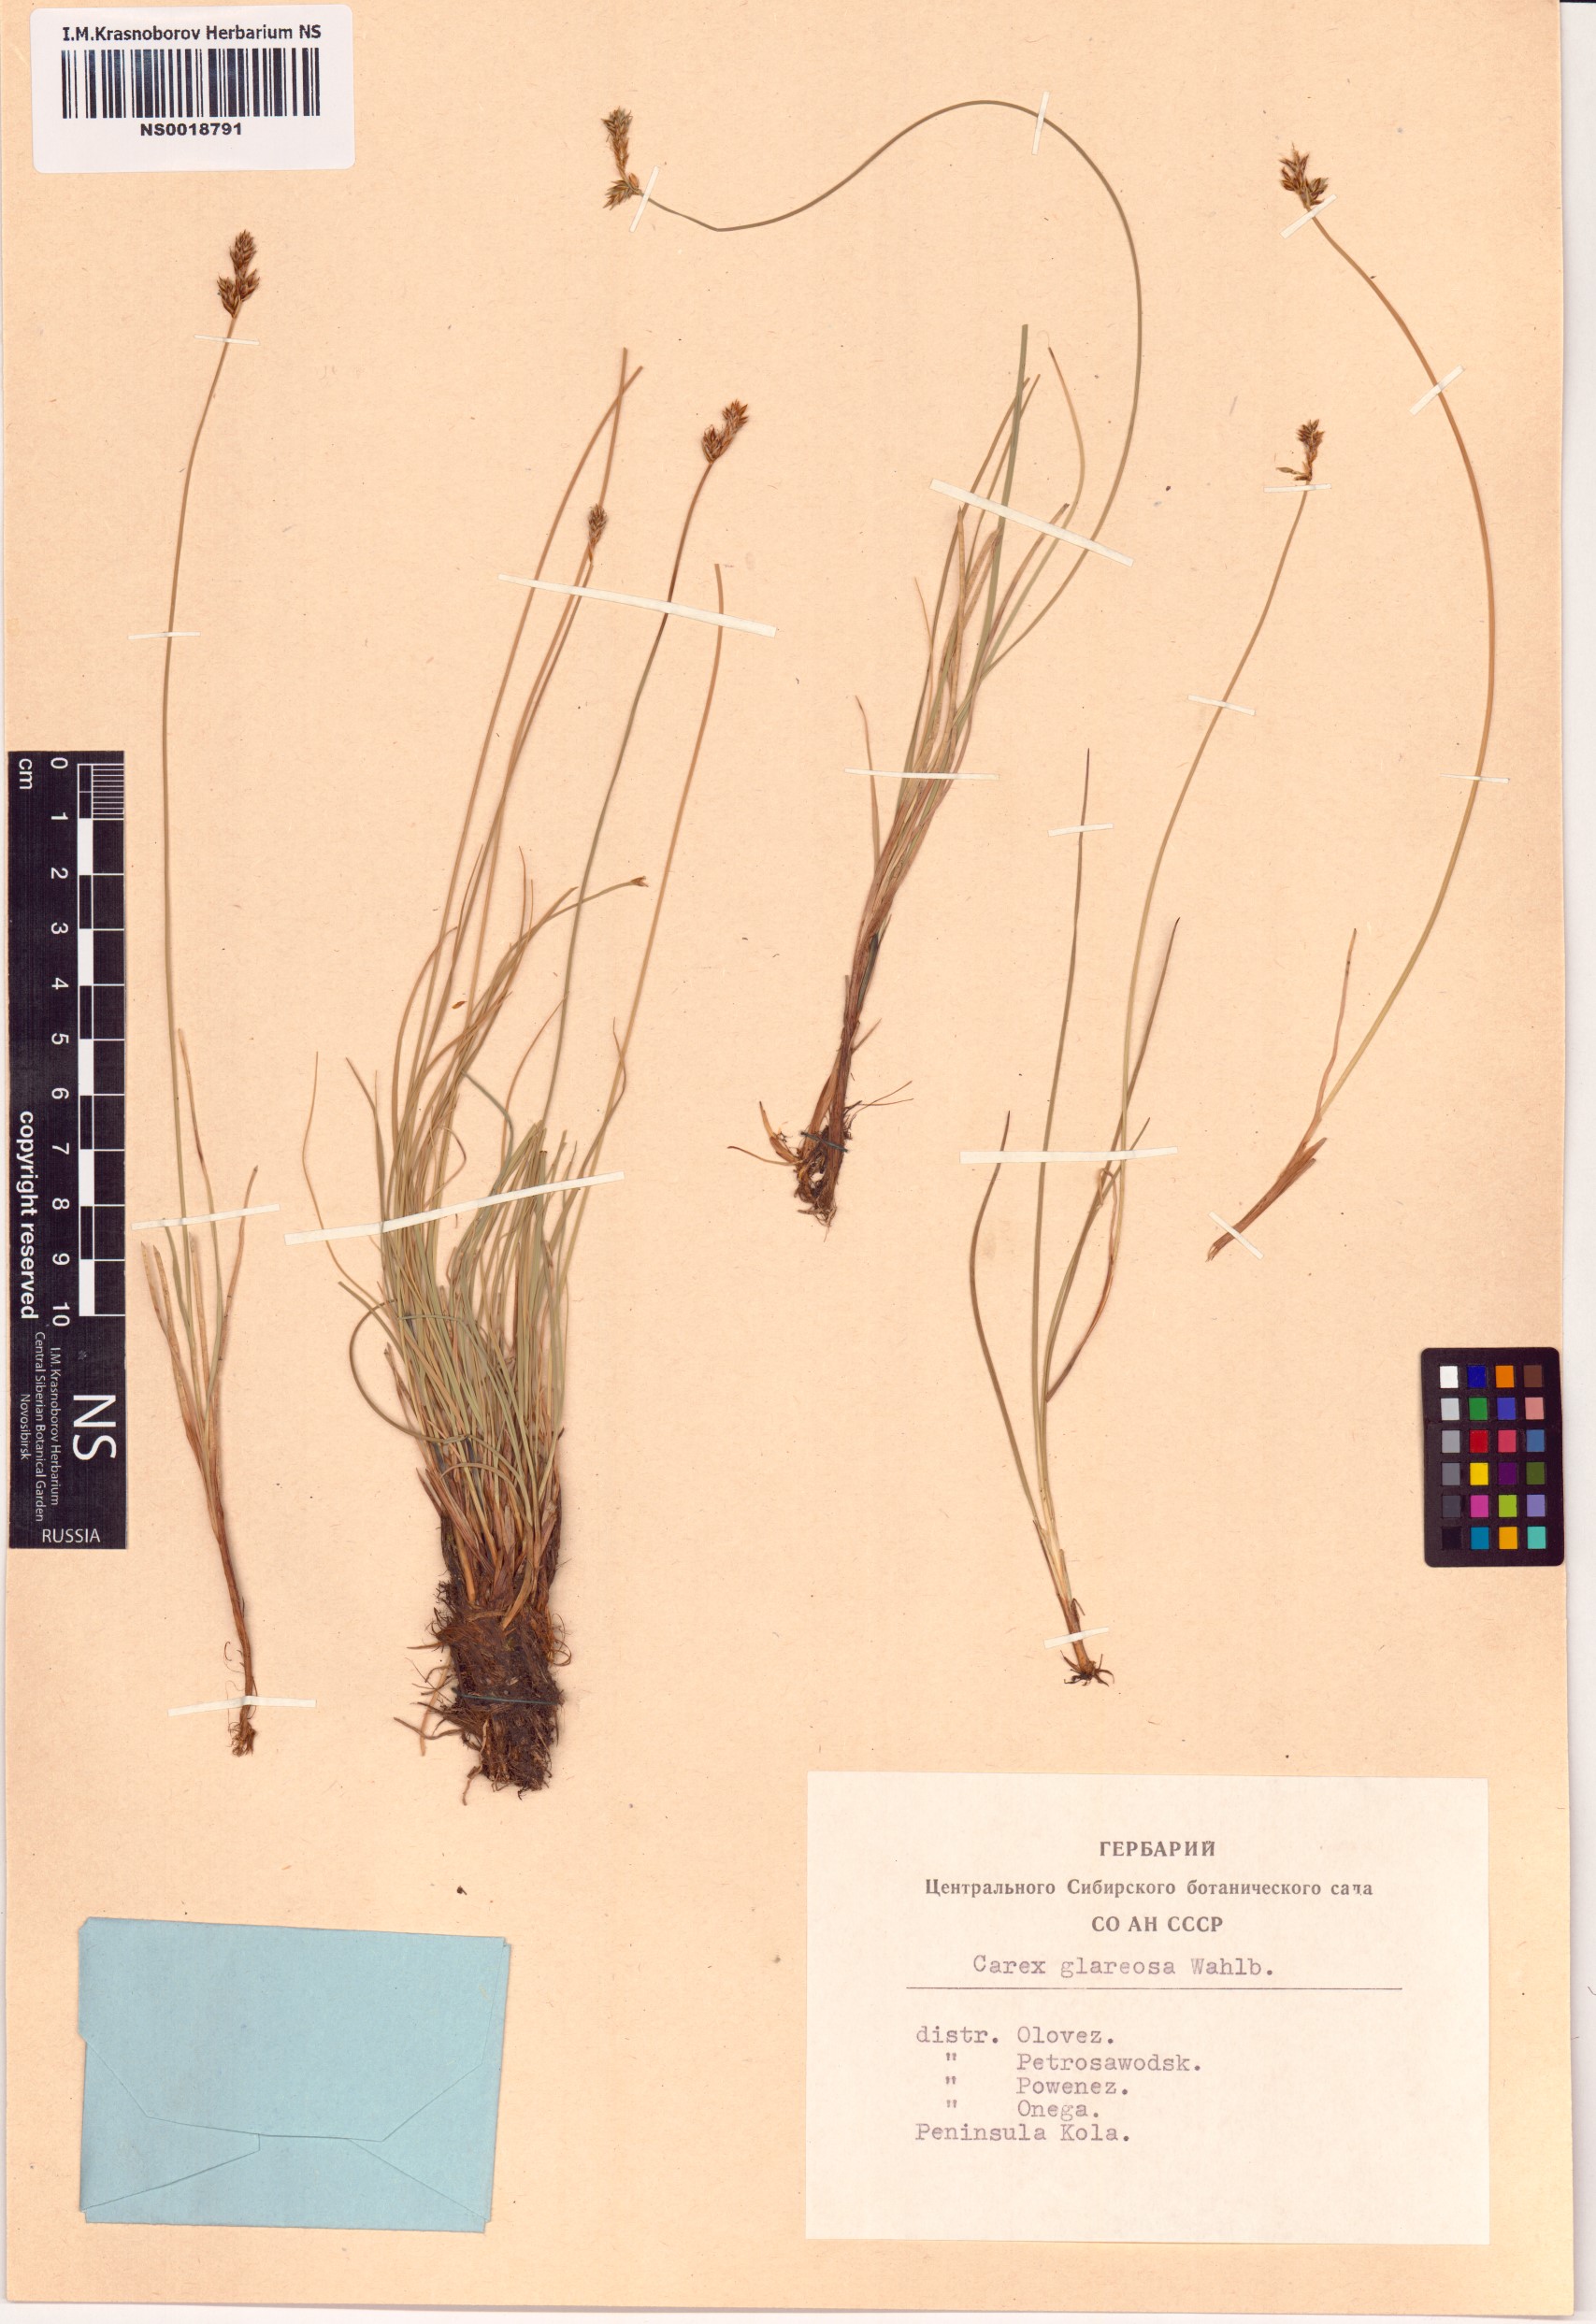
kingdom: Plantae
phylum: Tracheophyta
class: Liliopsida
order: Poales
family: Cyperaceae
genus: Carex
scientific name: Carex glareosa
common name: Clustered sedge
